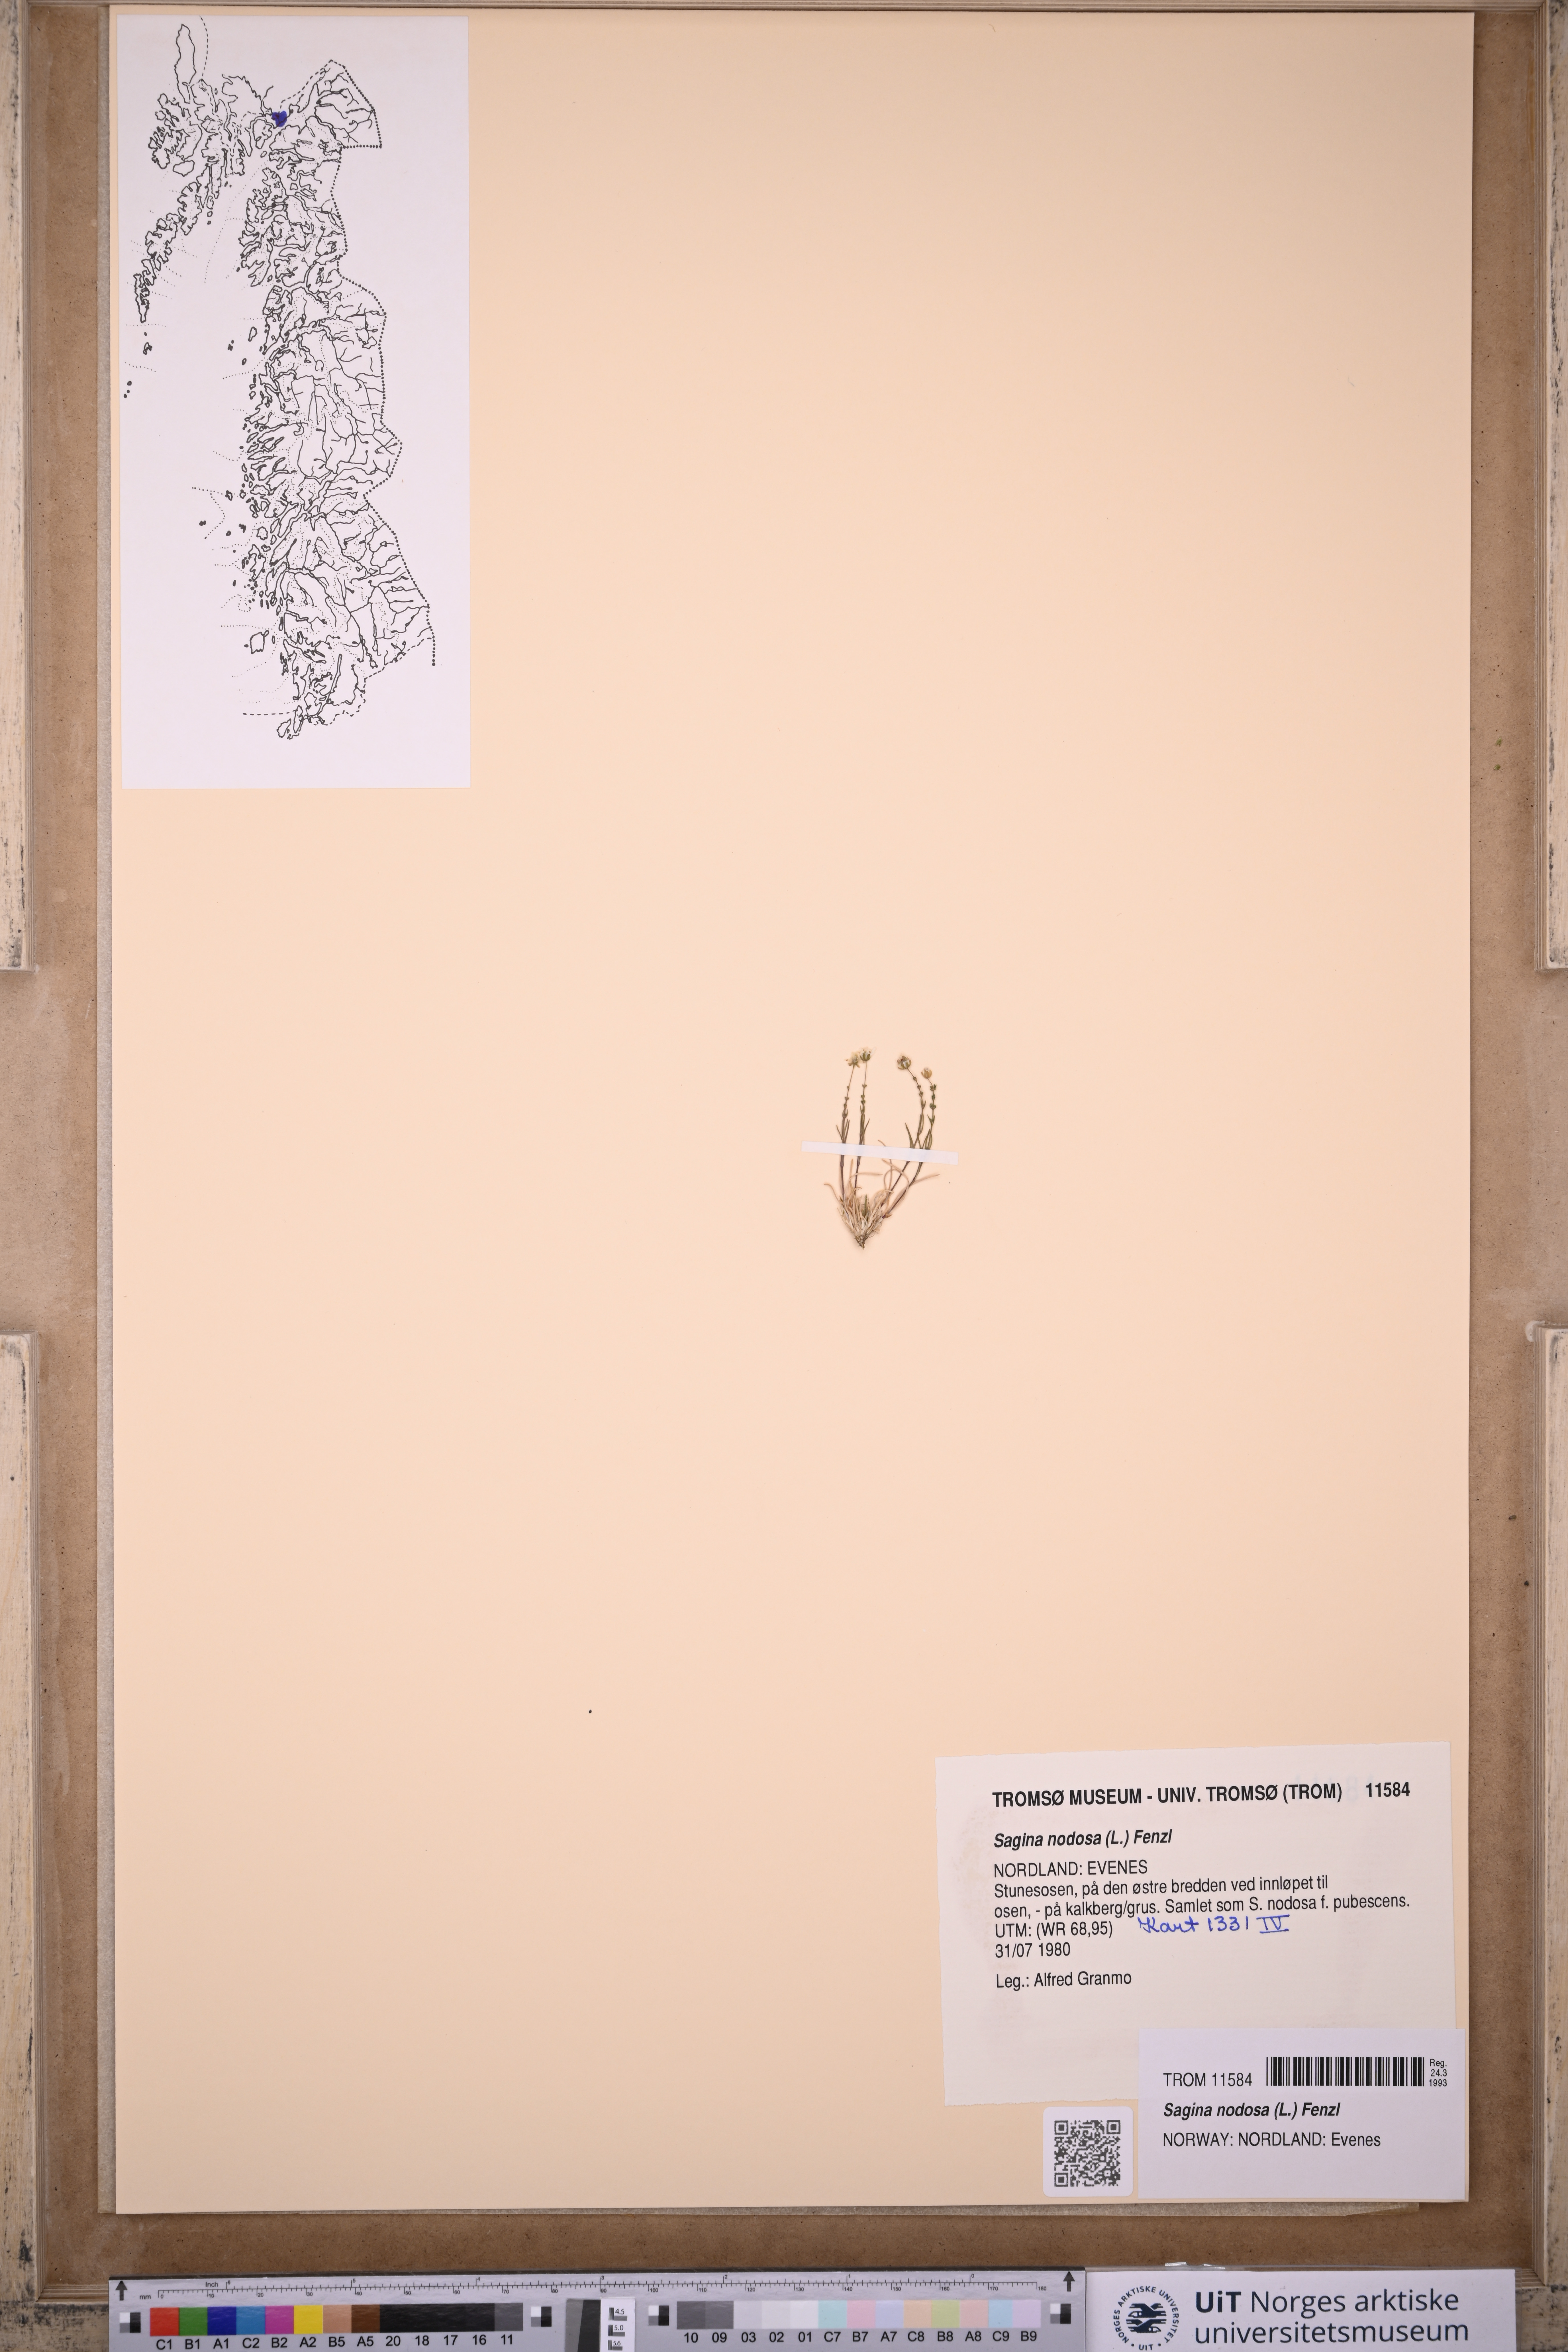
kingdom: Plantae
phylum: Tracheophyta
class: Magnoliopsida
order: Caryophyllales
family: Caryophyllaceae
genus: Sagina
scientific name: Sagina nodosa
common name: Knotted pearlwort
